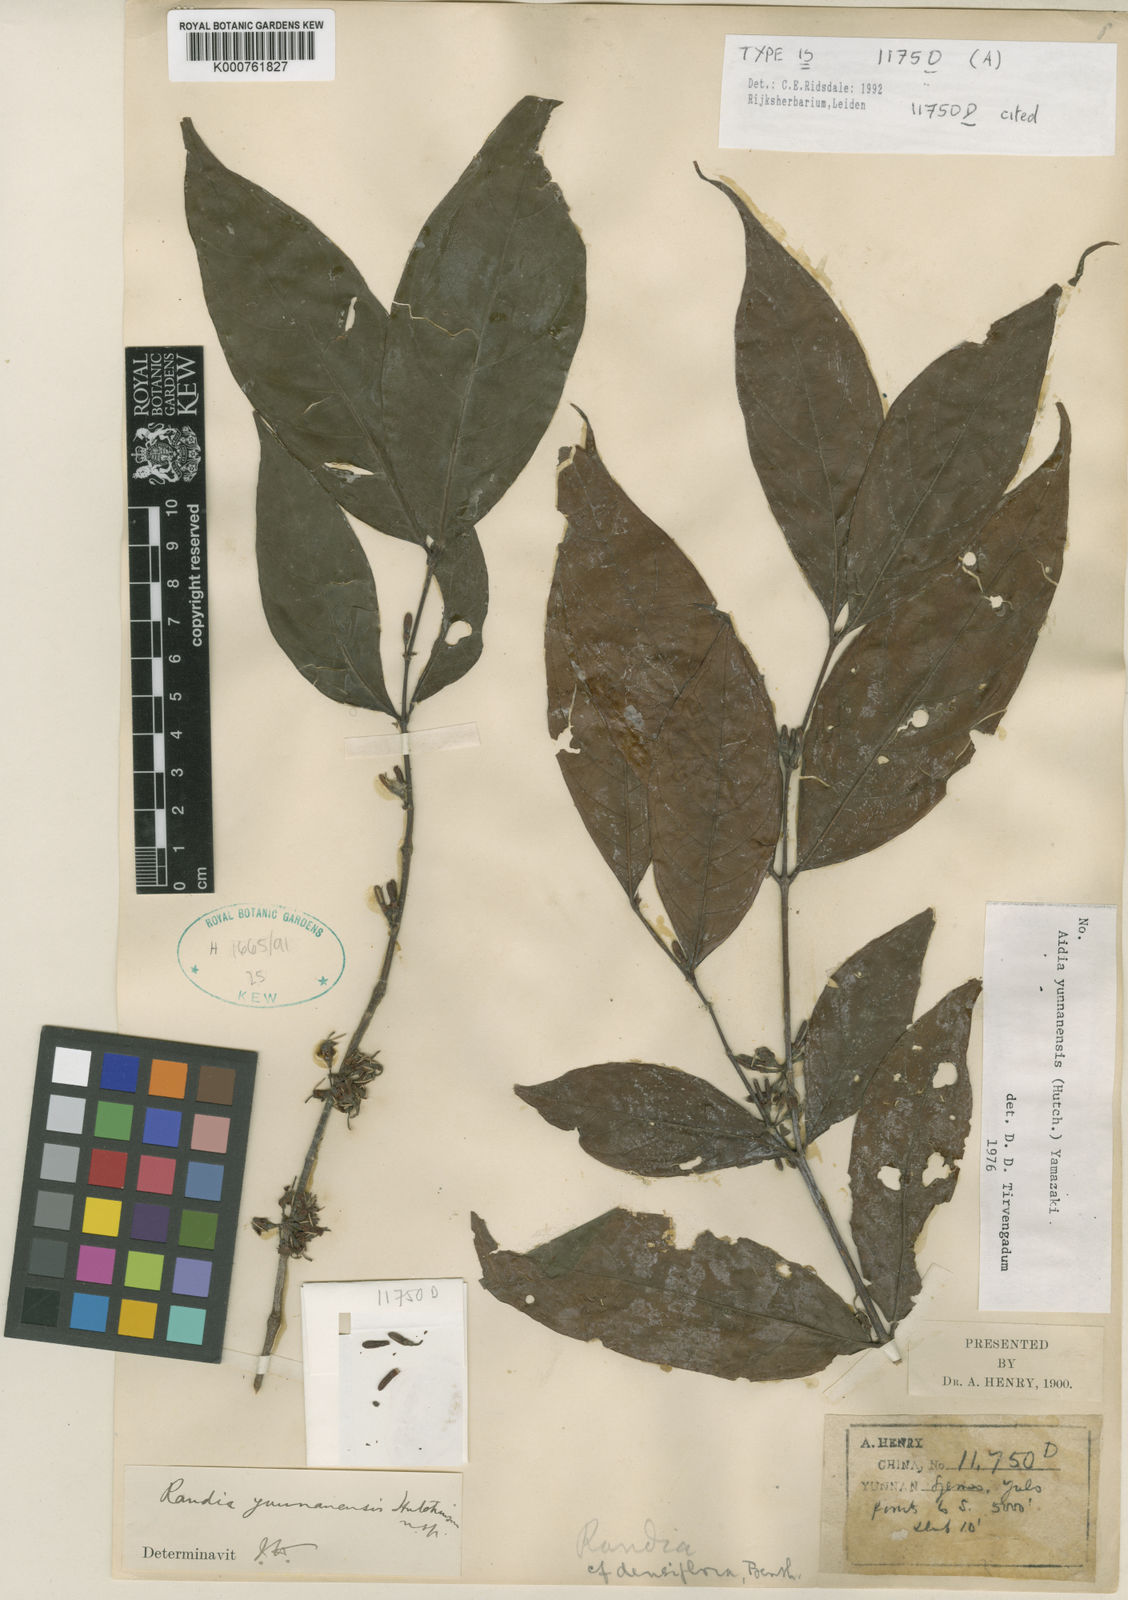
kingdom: Plantae
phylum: Tracheophyta
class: Magnoliopsida
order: Gentianales
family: Rubiaceae
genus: Aidia
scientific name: Aidia yunnanensis
